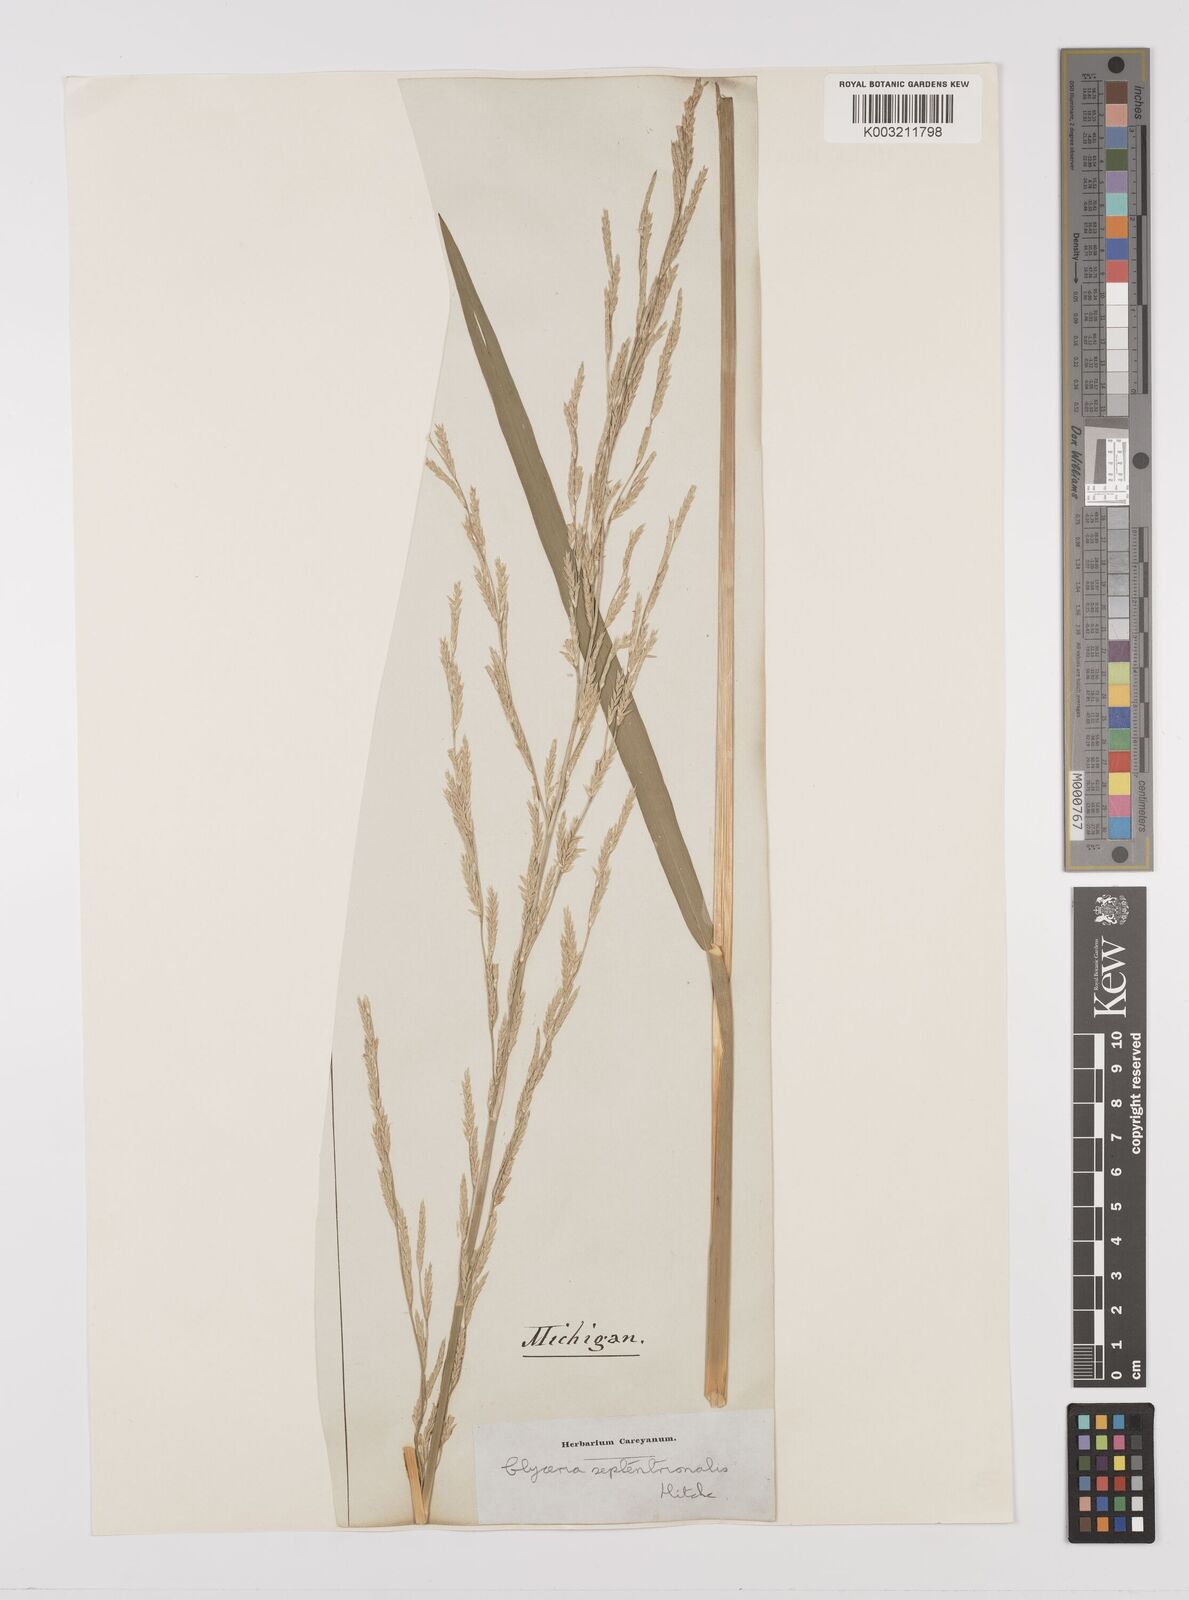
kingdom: Plantae
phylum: Tracheophyta
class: Liliopsida
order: Poales
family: Poaceae
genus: Glyceria
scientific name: Glyceria septentrionalis
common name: Eastern mannagrass
